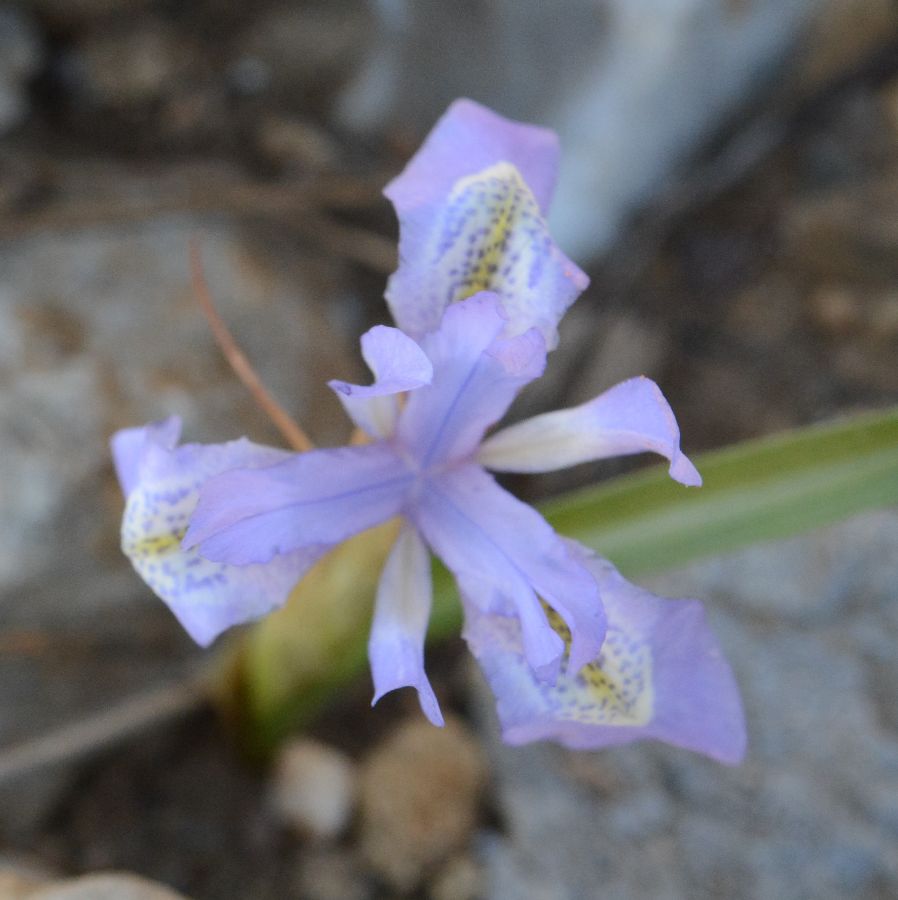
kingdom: Plantae
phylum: Tracheophyta
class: Liliopsida
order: Asparagales
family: Iridaceae
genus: Moraea
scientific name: Moraea mediterranea
